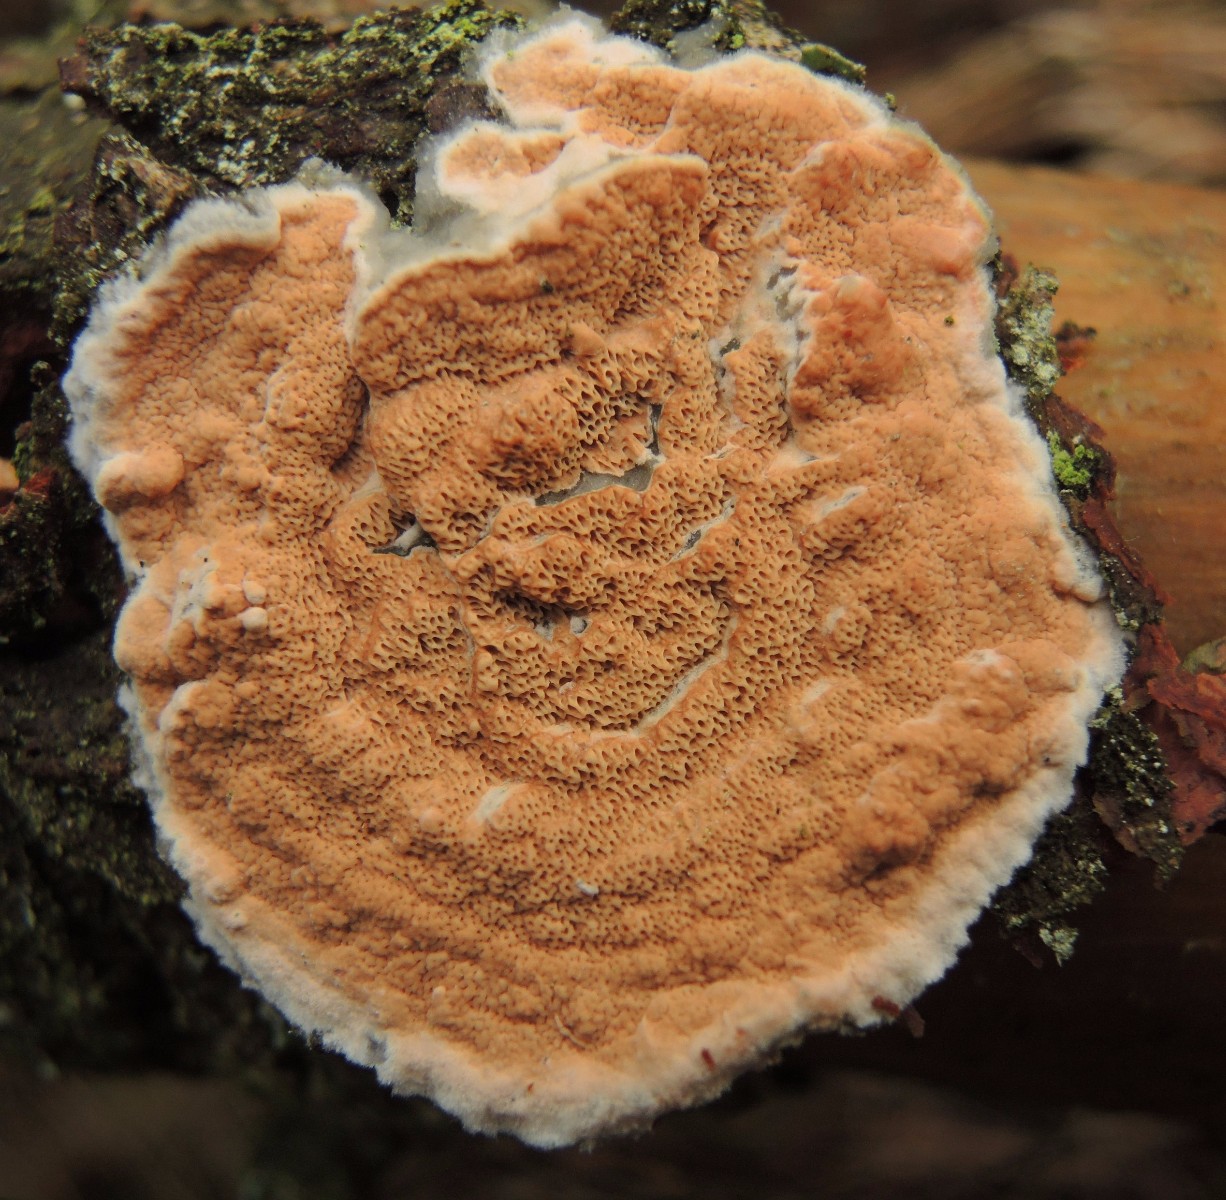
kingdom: Fungi
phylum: Basidiomycota
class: Agaricomycetes
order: Polyporales
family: Irpicaceae
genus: Meruliopsis
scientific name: Meruliopsis taxicola
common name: purpurbrun foldporesvamp
